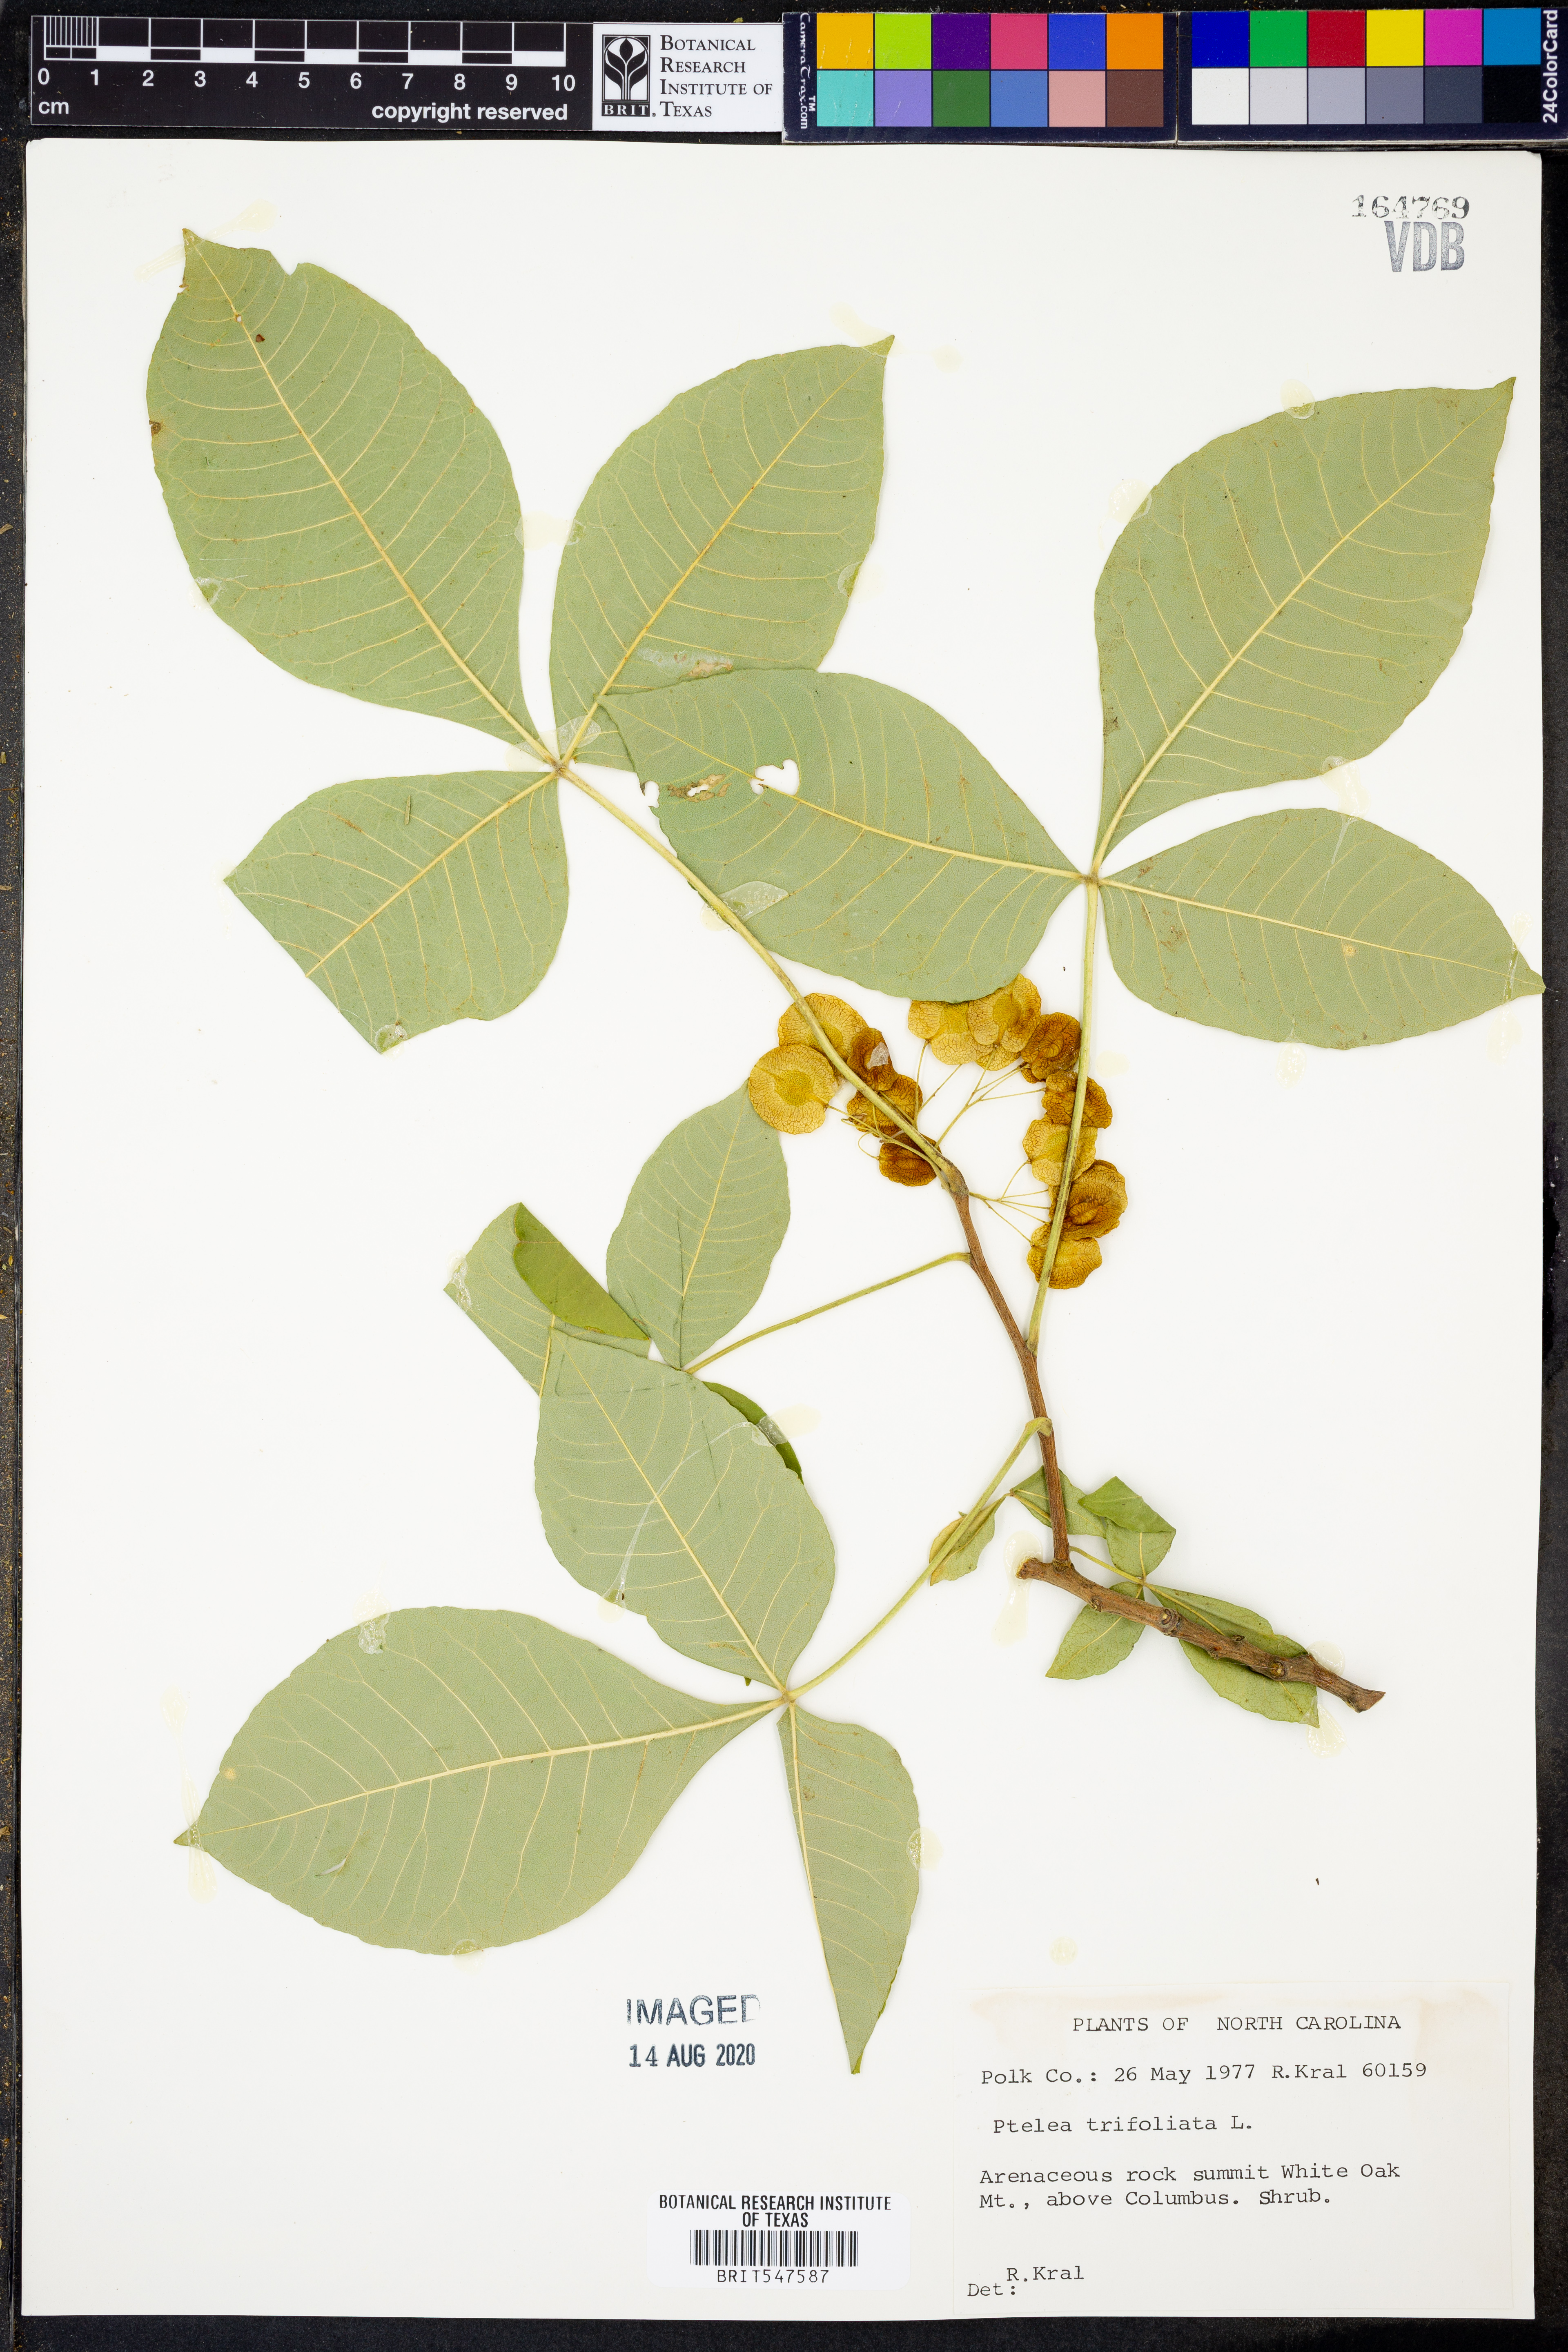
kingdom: Plantae
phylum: Tracheophyta
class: Magnoliopsida
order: Sapindales
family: Rutaceae
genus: Ptelea
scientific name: Ptelea trifoliata
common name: Common hop-tree
